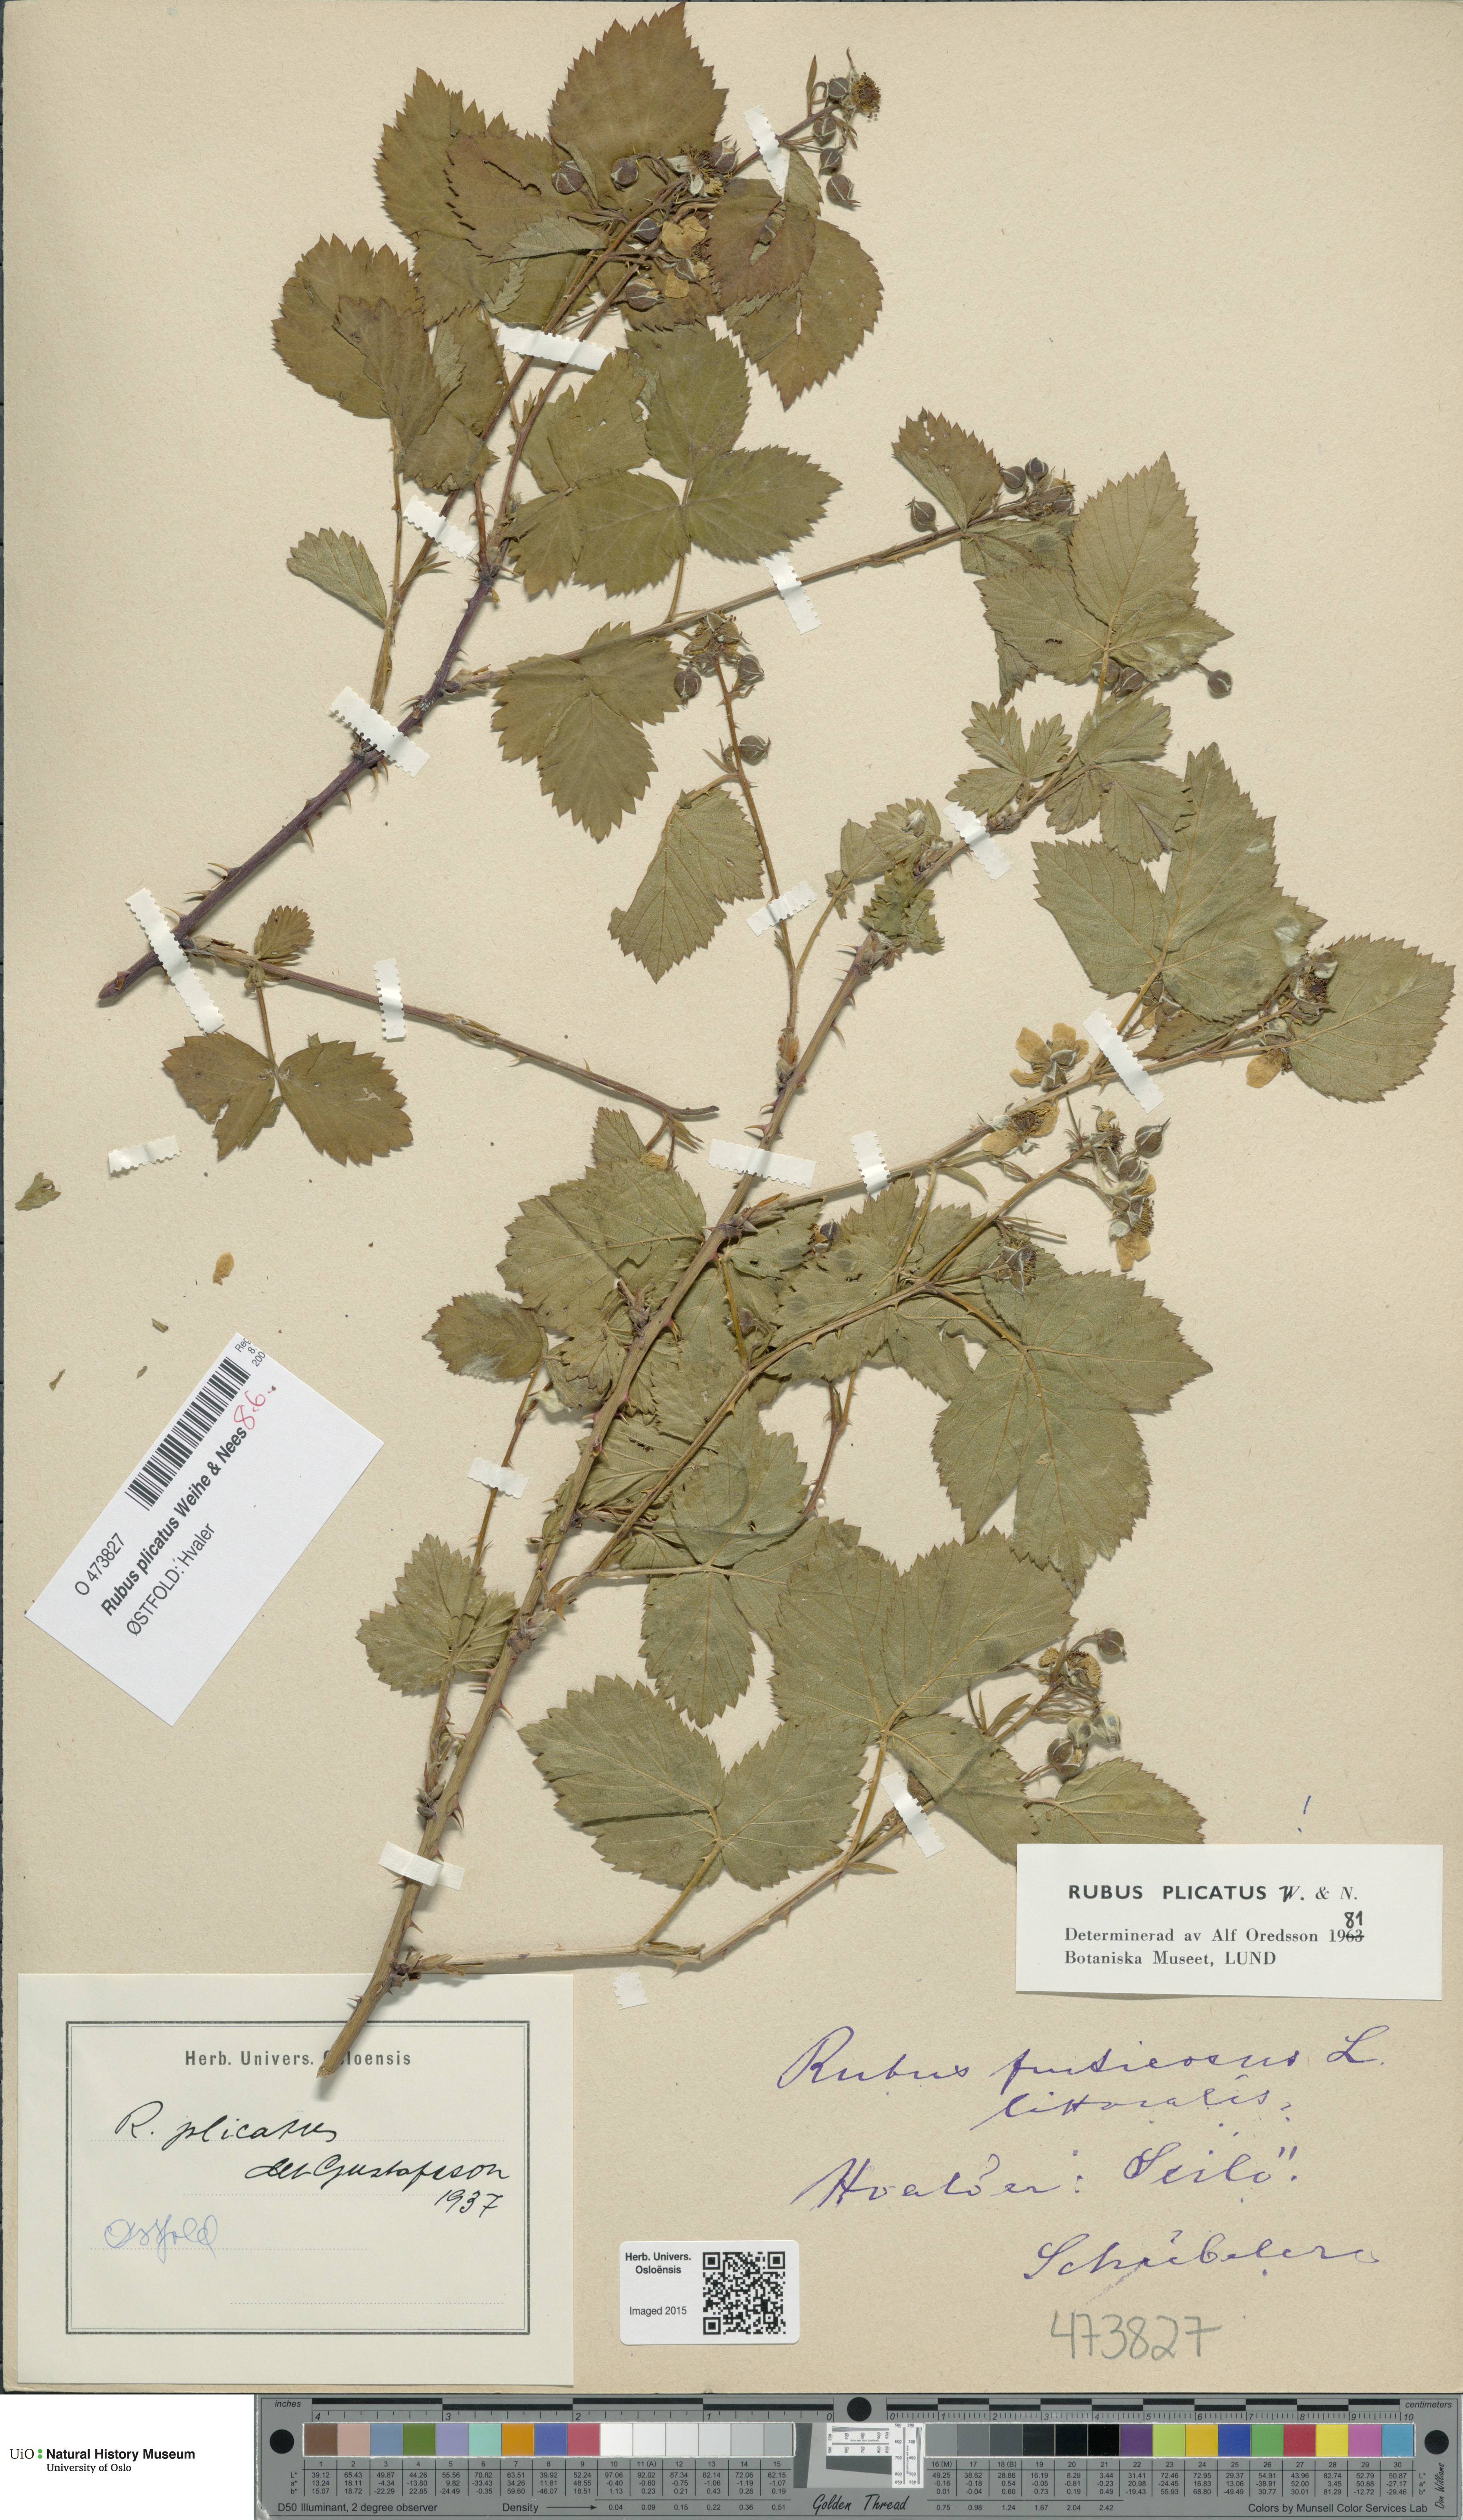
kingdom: Plantae
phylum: Tracheophyta
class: Magnoliopsida
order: Rosales
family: Rosaceae
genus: Rubus
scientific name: Rubus fruticosus
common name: Blackberry, bramble
